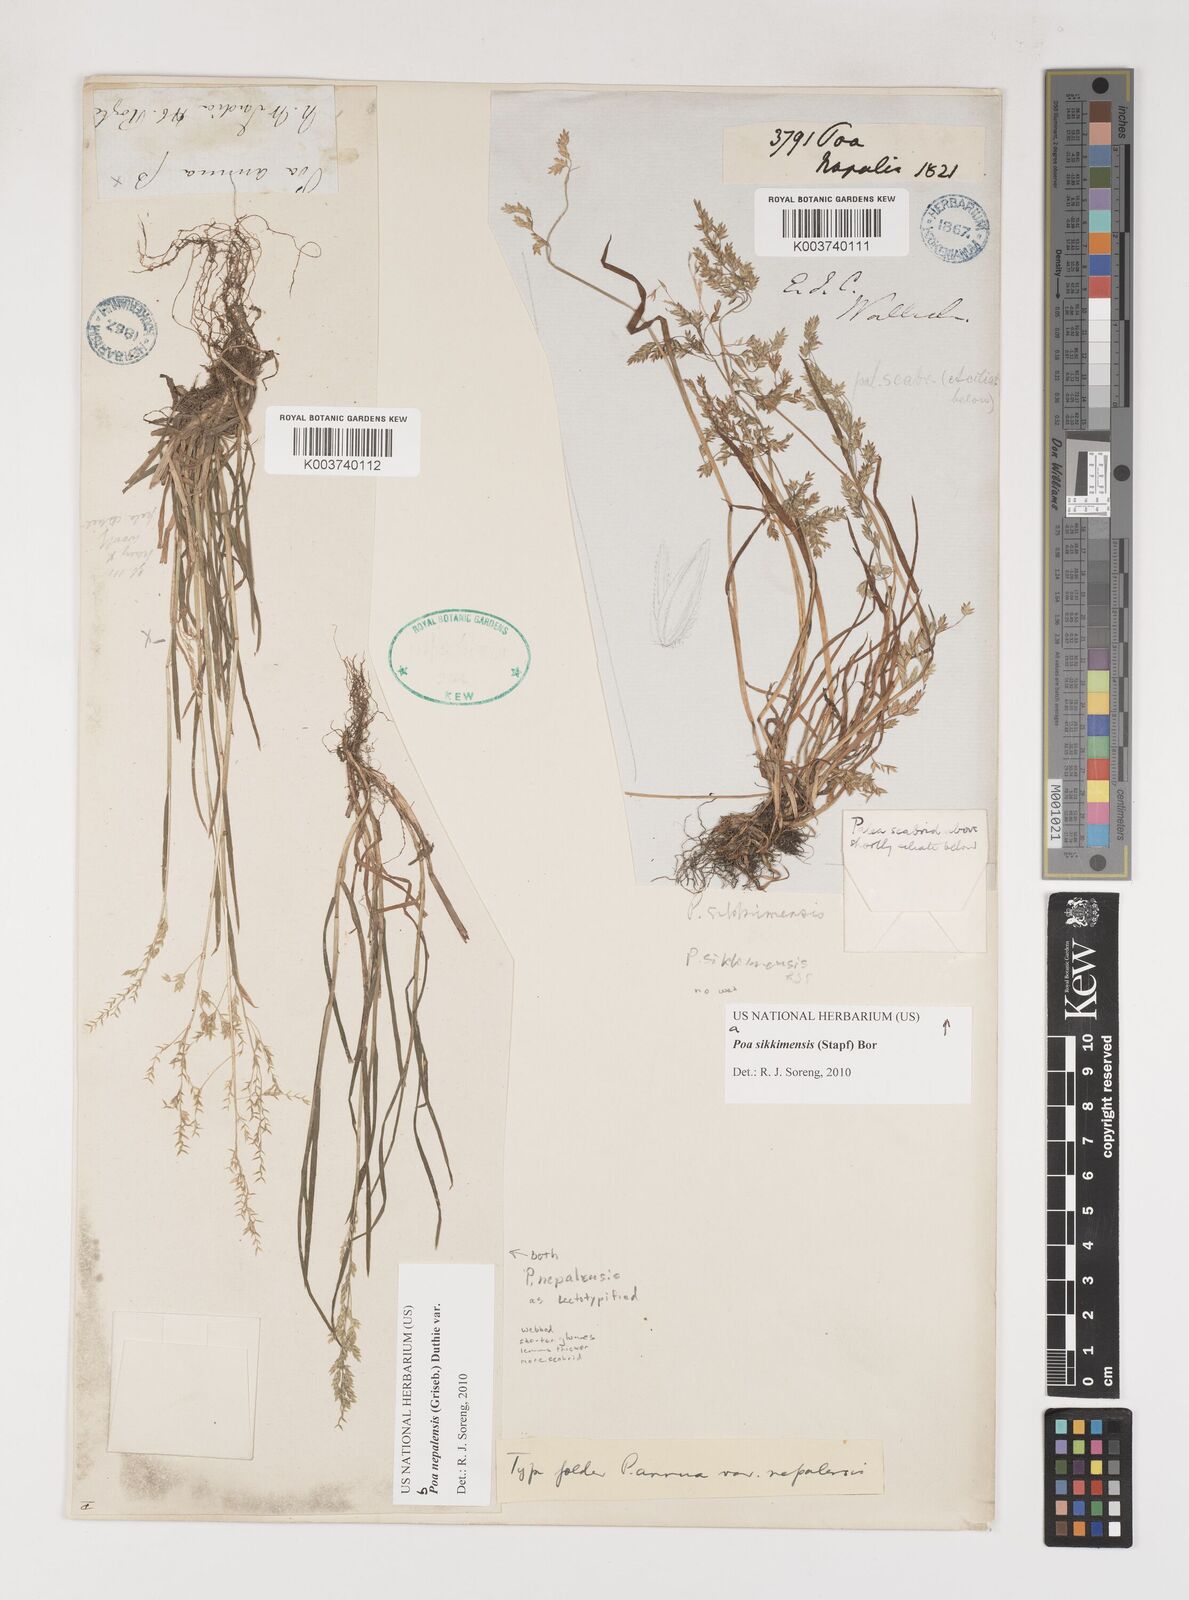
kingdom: Plantae
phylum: Tracheophyta
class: Liliopsida
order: Poales
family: Poaceae
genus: Poa
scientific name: Poa sikkimensis
